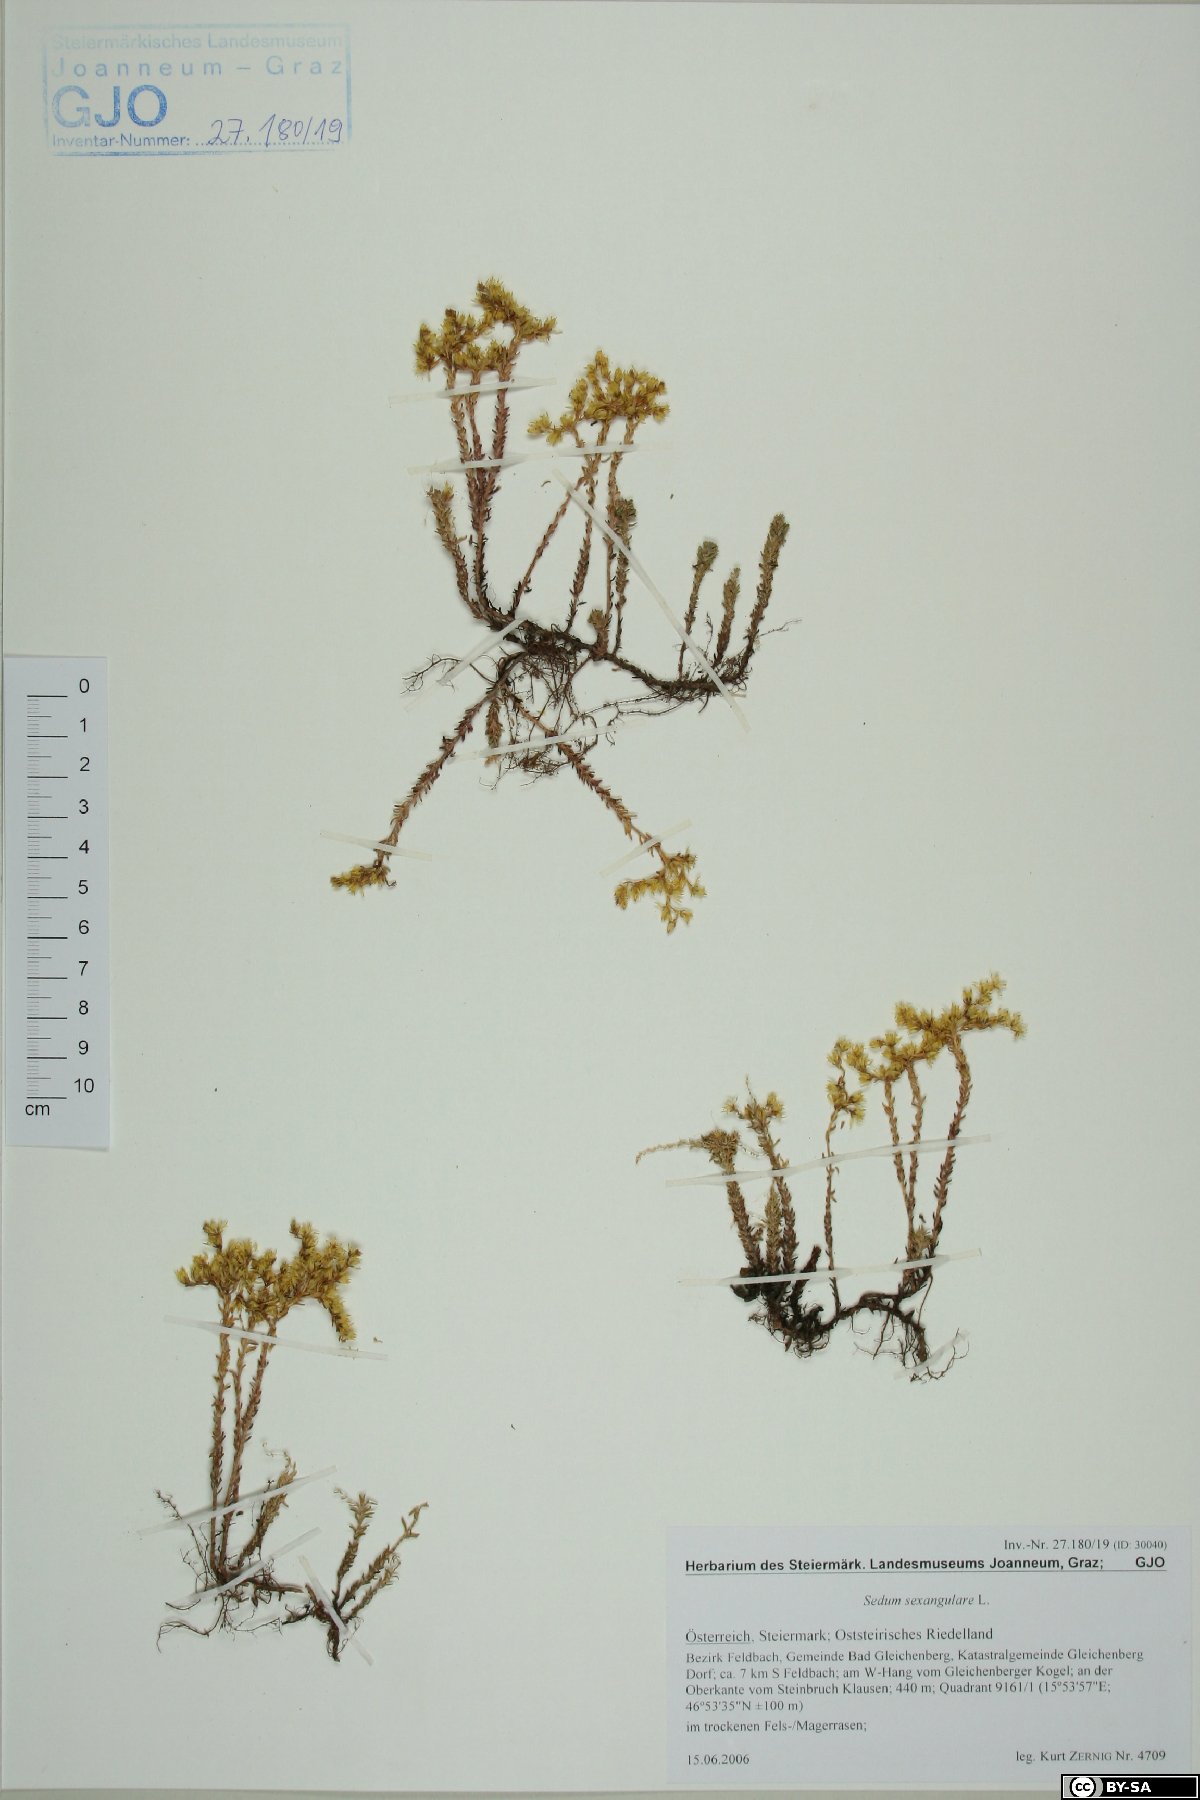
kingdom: Plantae
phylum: Tracheophyta
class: Magnoliopsida
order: Saxifragales
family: Crassulaceae
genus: Sedum
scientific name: Sedum sexangulare
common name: Tasteless stonecrop
